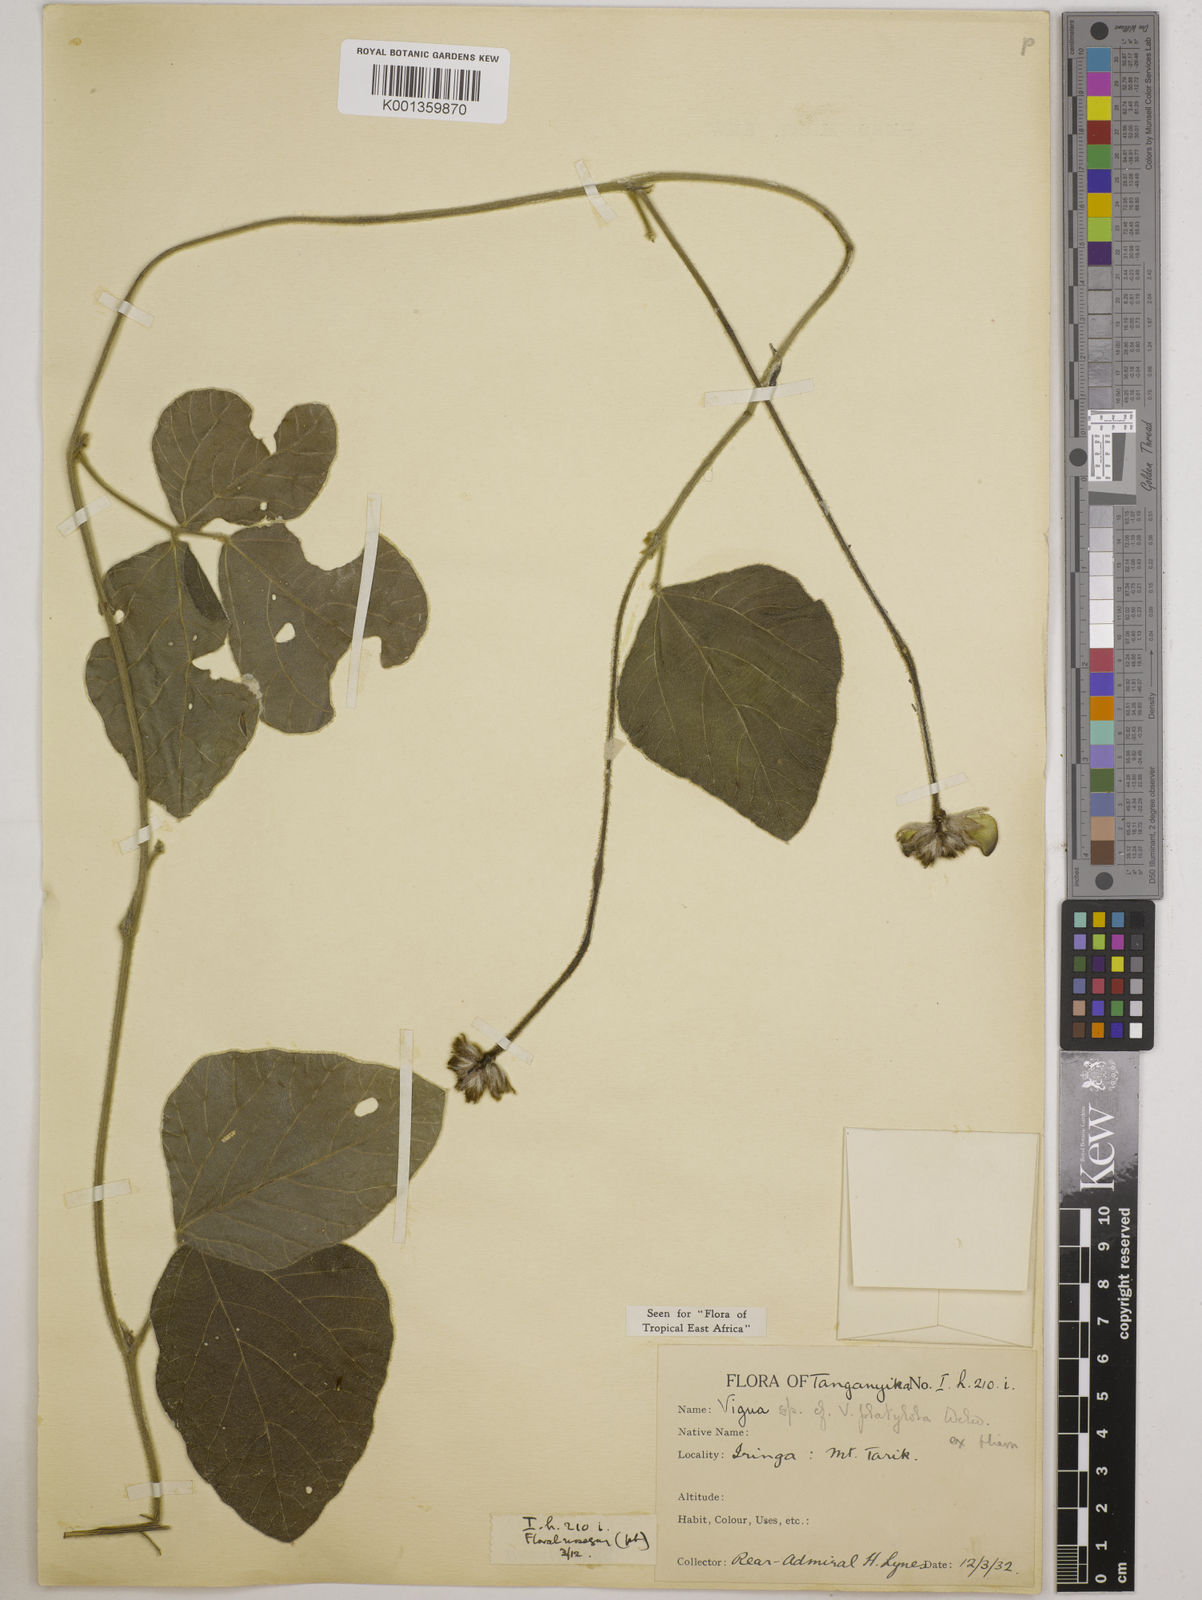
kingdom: Plantae
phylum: Tracheophyta
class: Magnoliopsida
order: Fabales
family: Fabaceae
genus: Vigna
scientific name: Vigna platyloba
